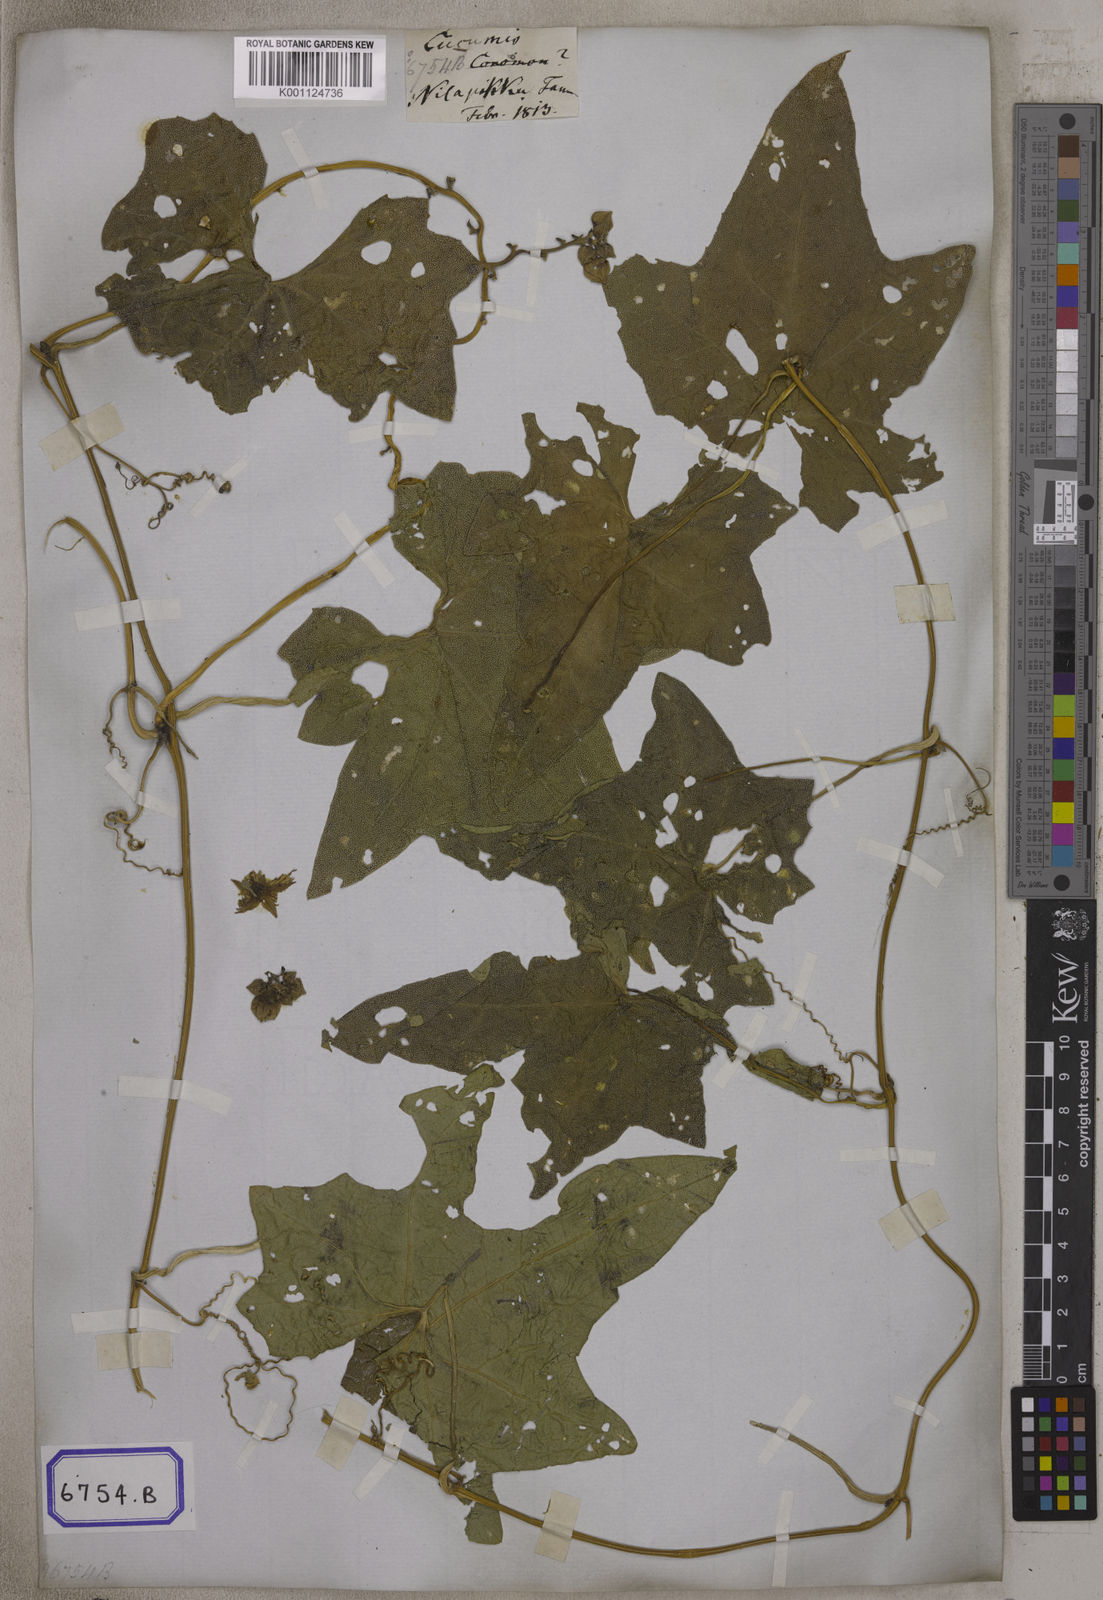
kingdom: Plantae
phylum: Tracheophyta
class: Magnoliopsida
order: Cucurbitales
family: Cucurbitaceae
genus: Luffa
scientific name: Luffa
